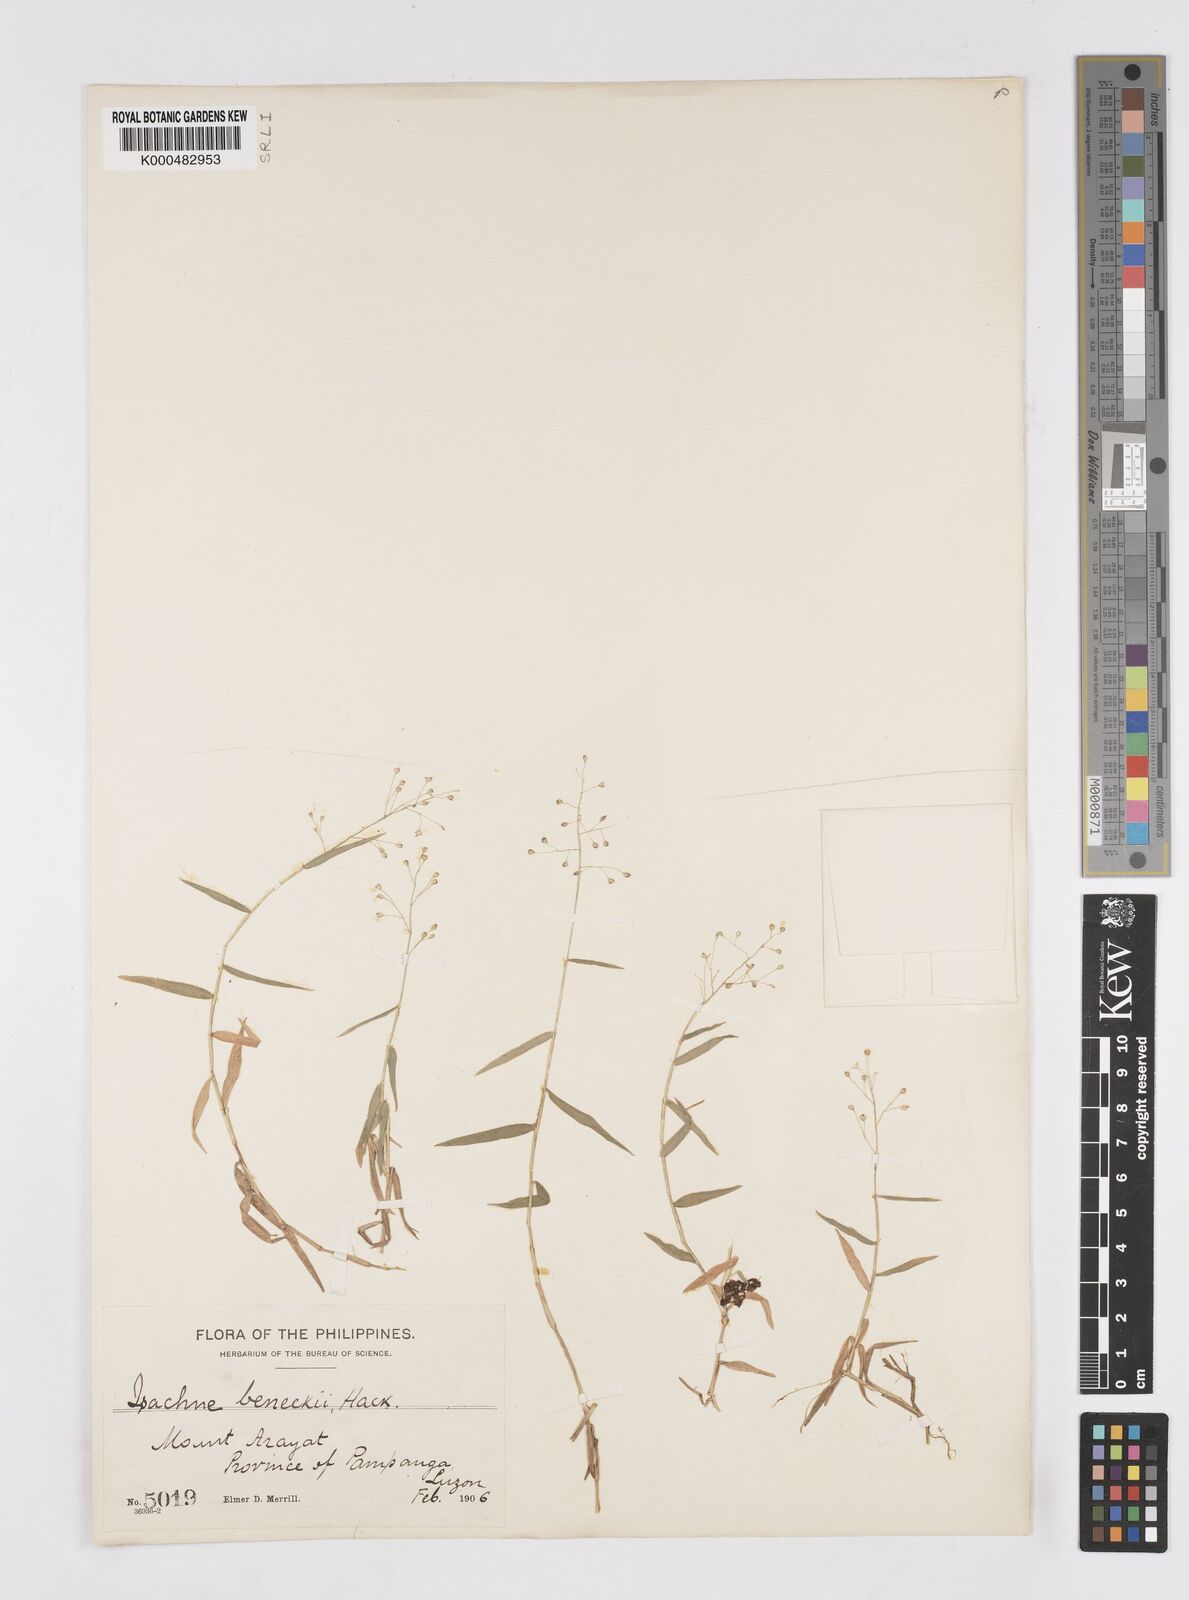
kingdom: Plantae
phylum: Tracheophyta
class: Liliopsida
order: Poales
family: Poaceae
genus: Isachne
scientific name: Isachne clarkei
